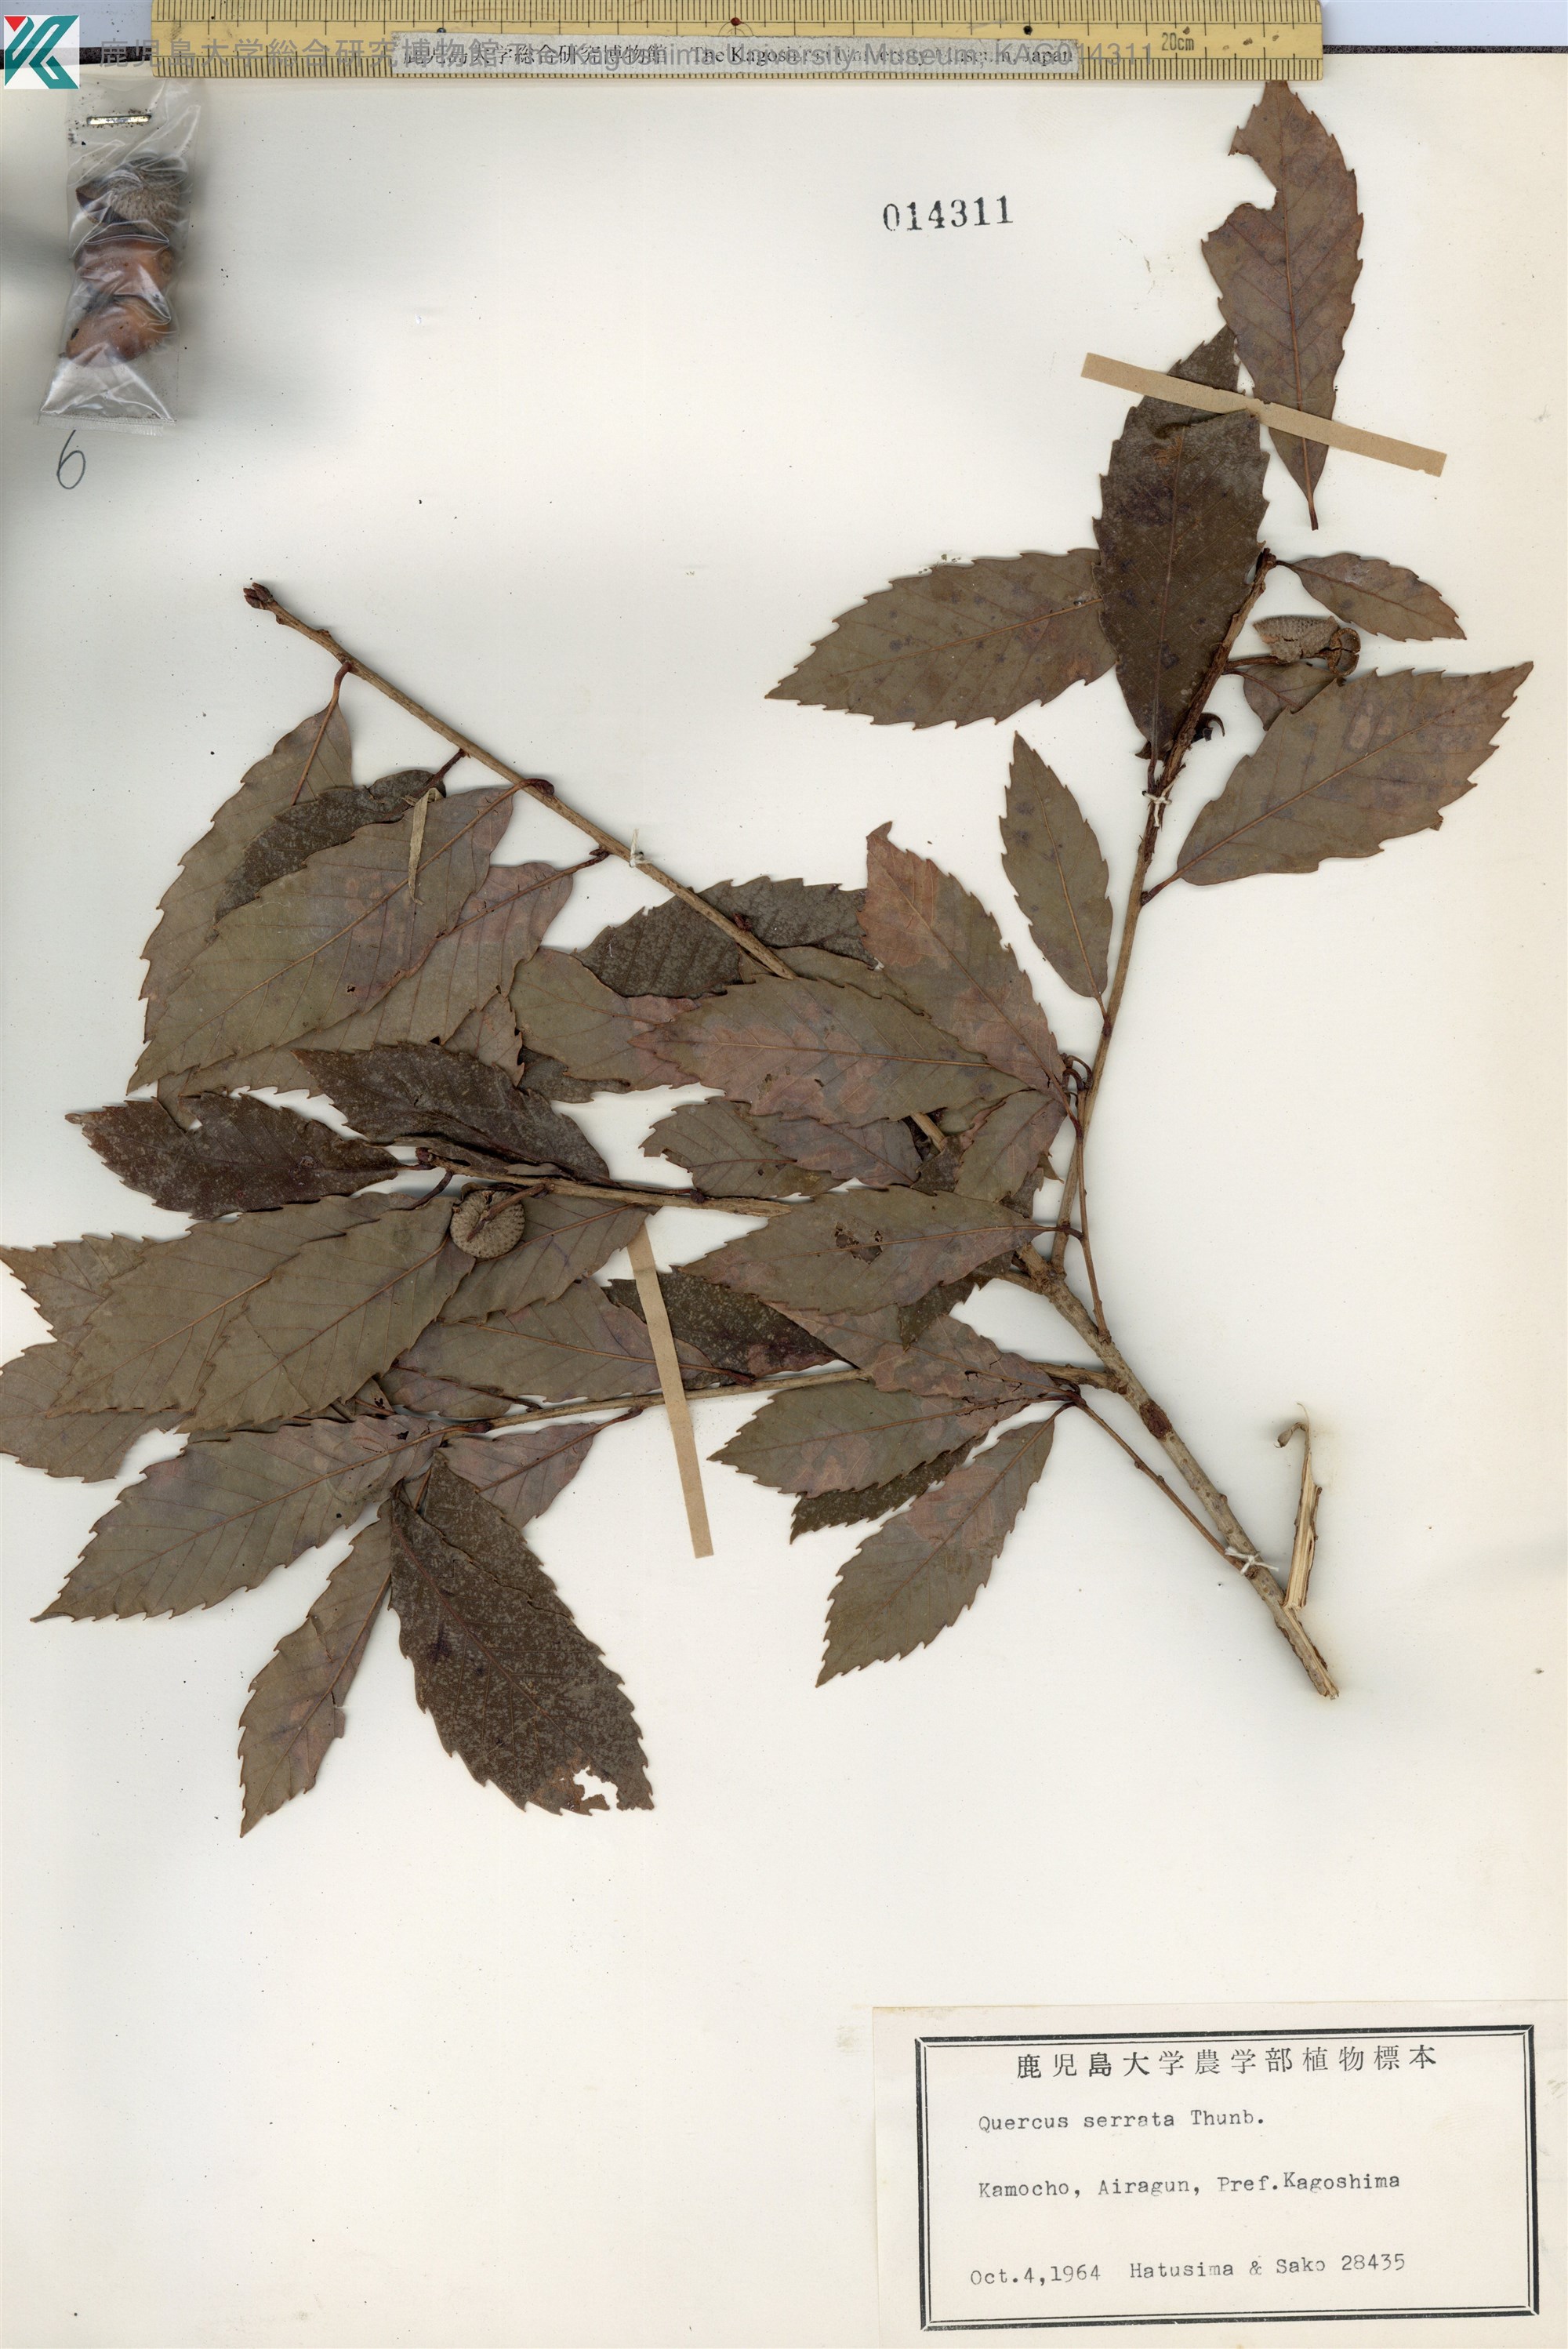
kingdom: Plantae
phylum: Tracheophyta
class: Magnoliopsida
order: Fagales
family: Fagaceae
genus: Quercus
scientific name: Quercus serrata
